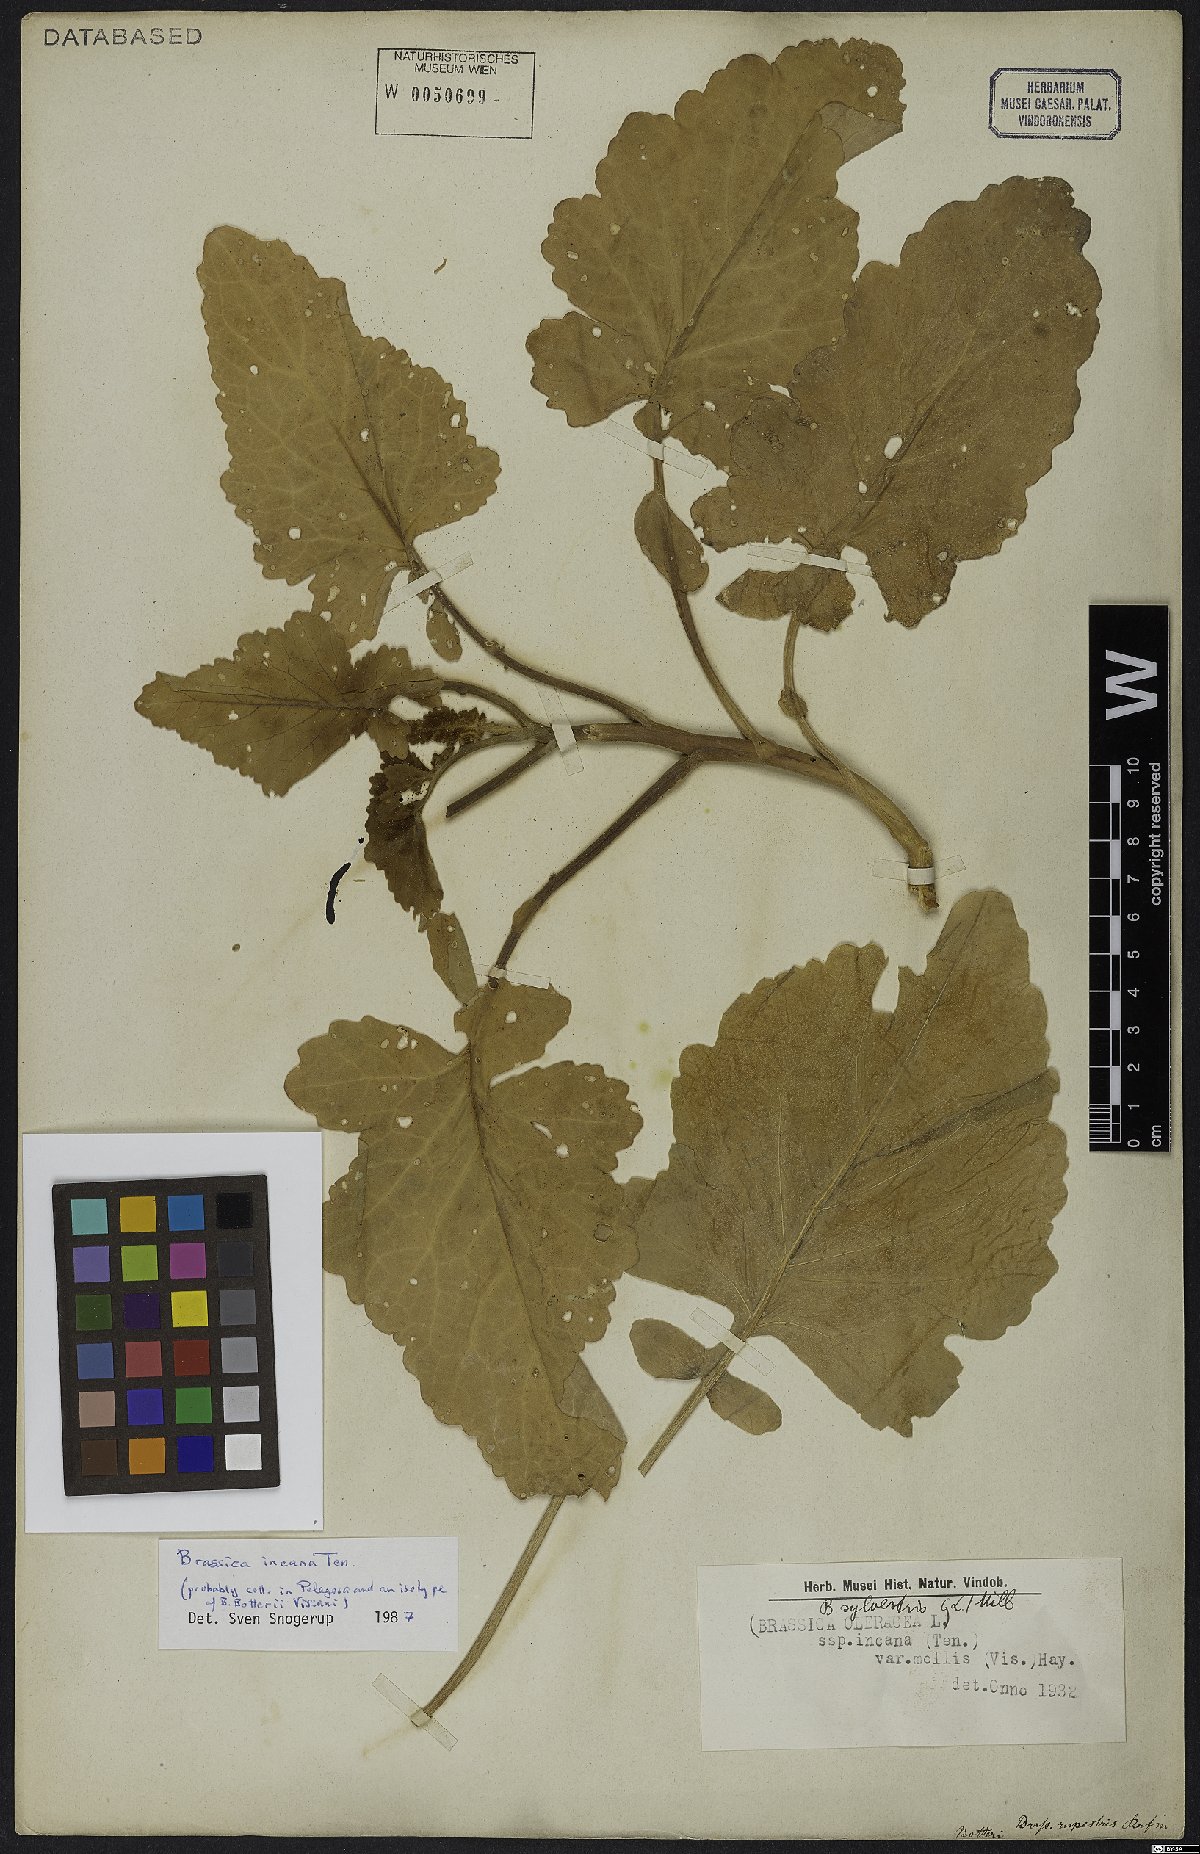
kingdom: Plantae
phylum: Tracheophyta
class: Magnoliopsida
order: Brassicales
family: Brassicaceae
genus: Brassica
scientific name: Brassica incana
